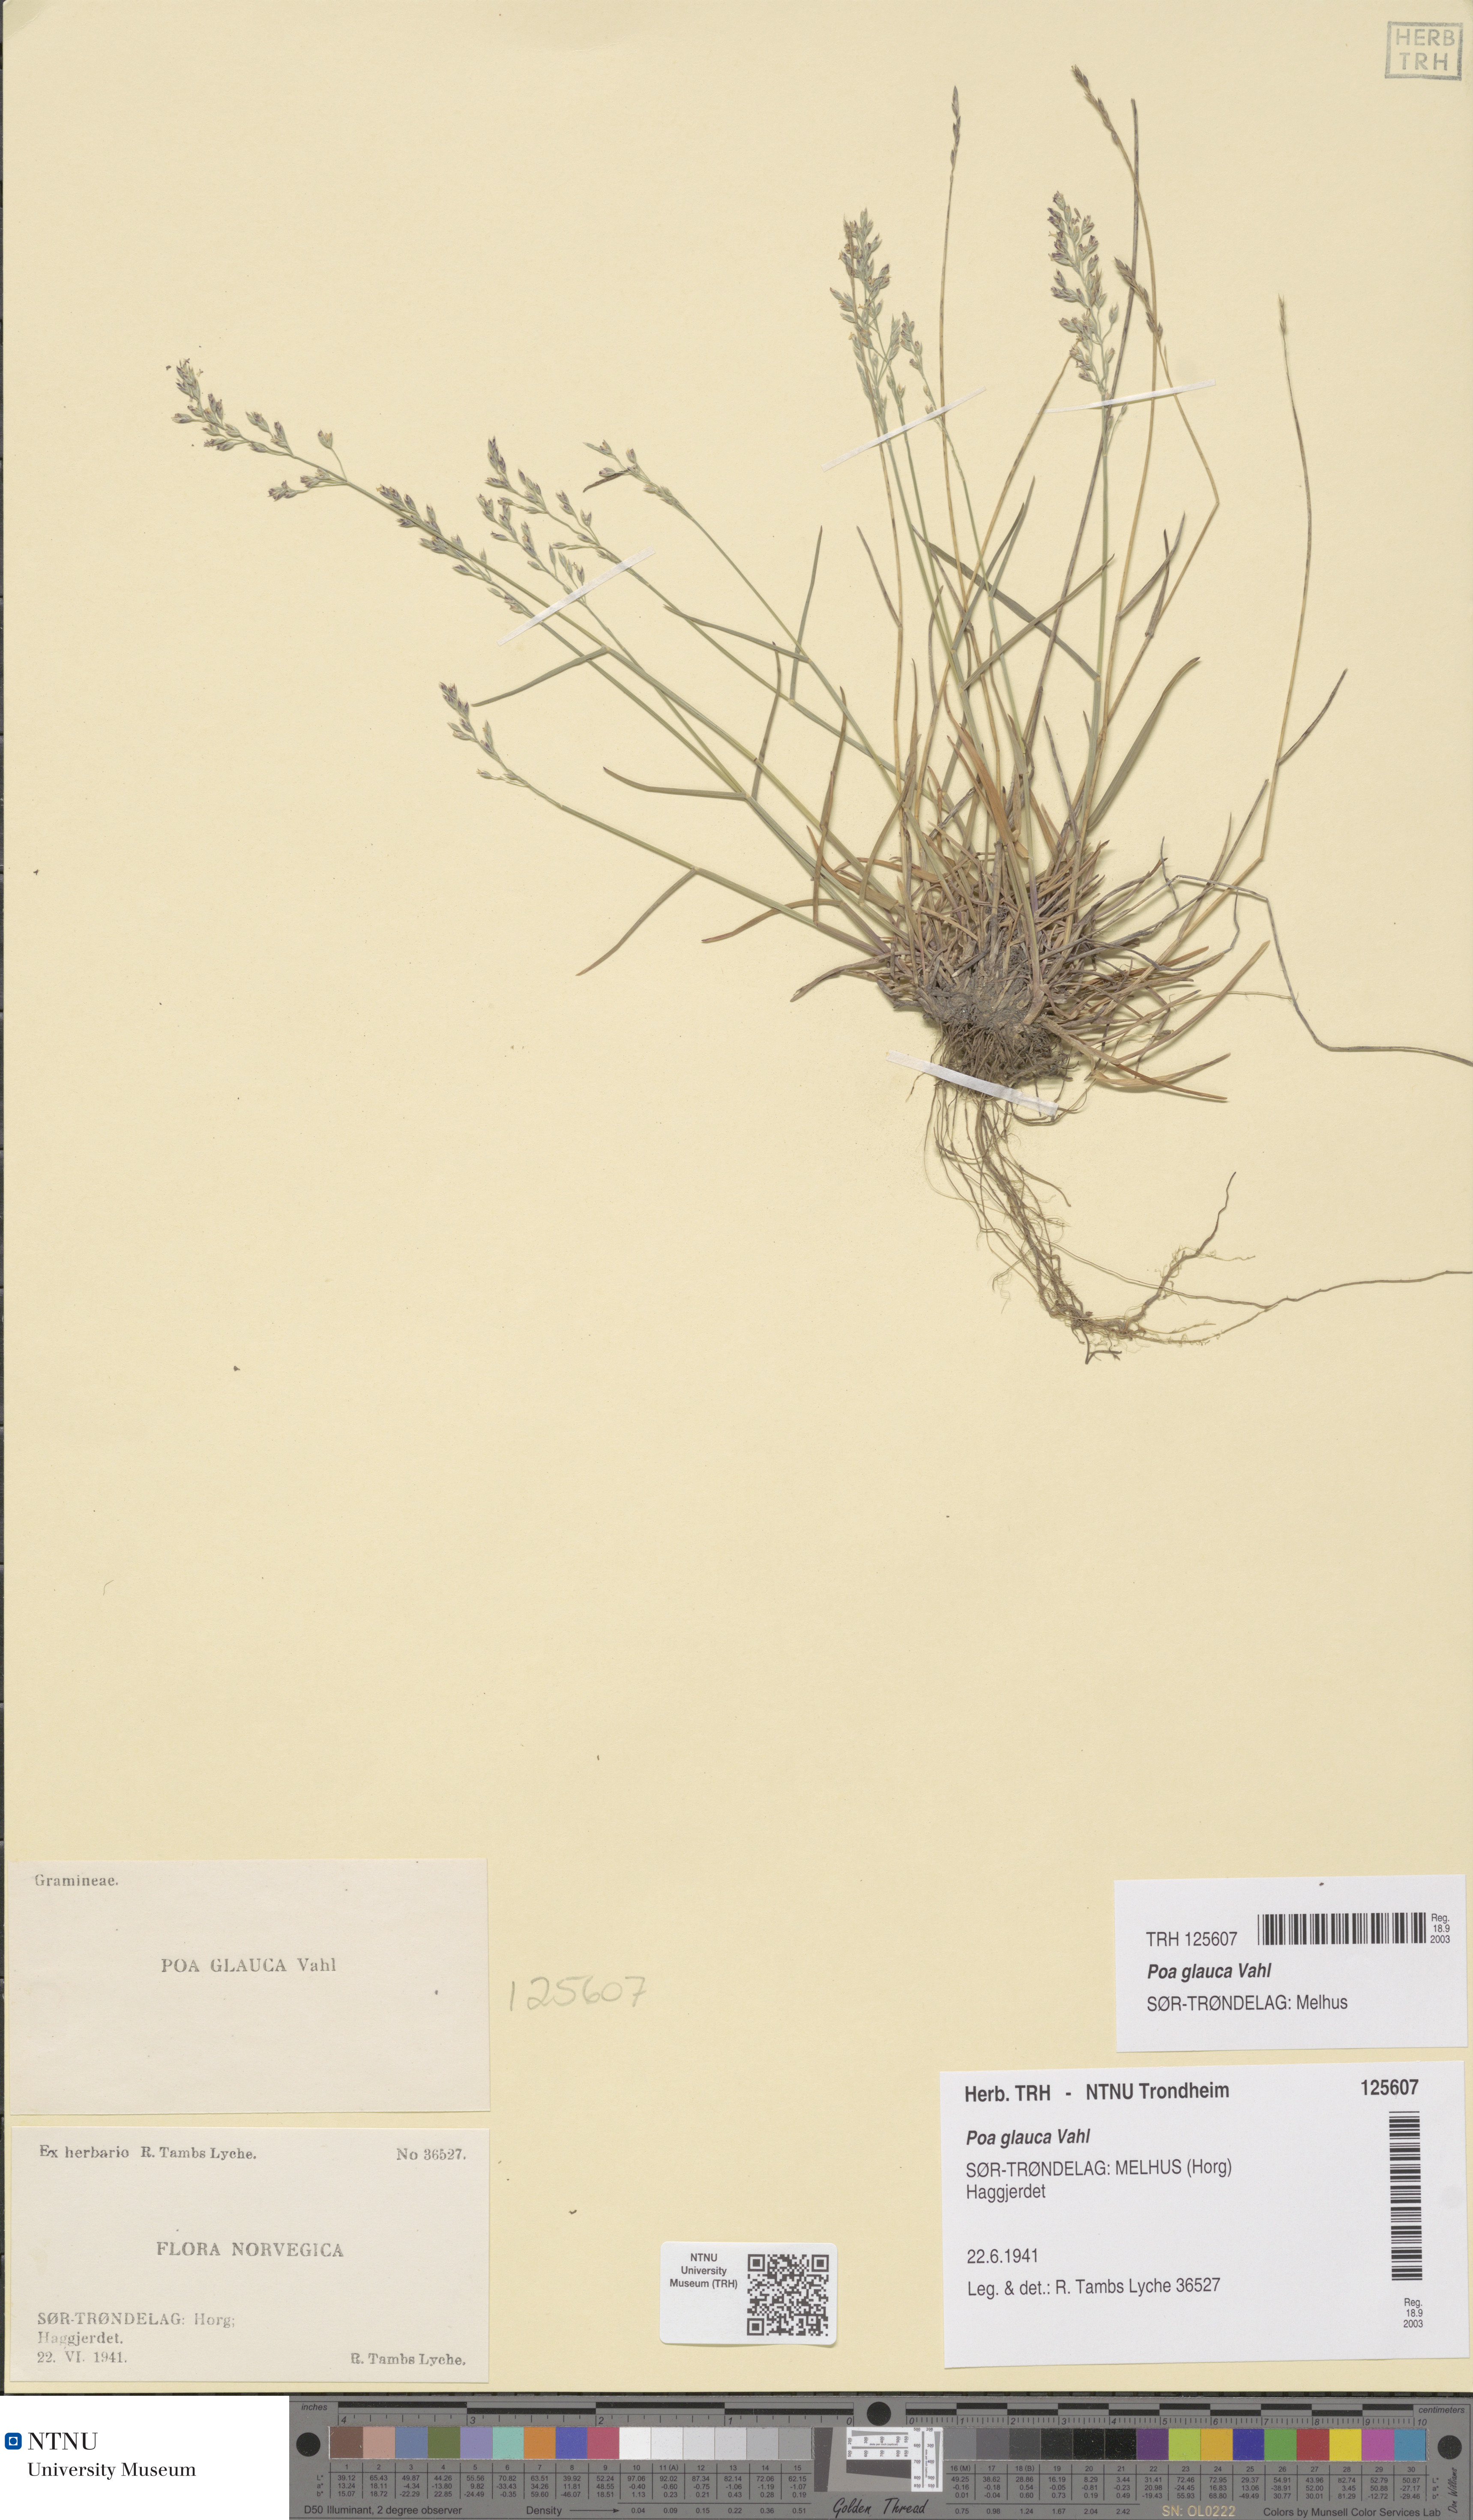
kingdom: Plantae
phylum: Tracheophyta
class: Liliopsida
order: Poales
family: Poaceae
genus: Poa
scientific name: Poa glauca
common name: Glaucous bluegrass
